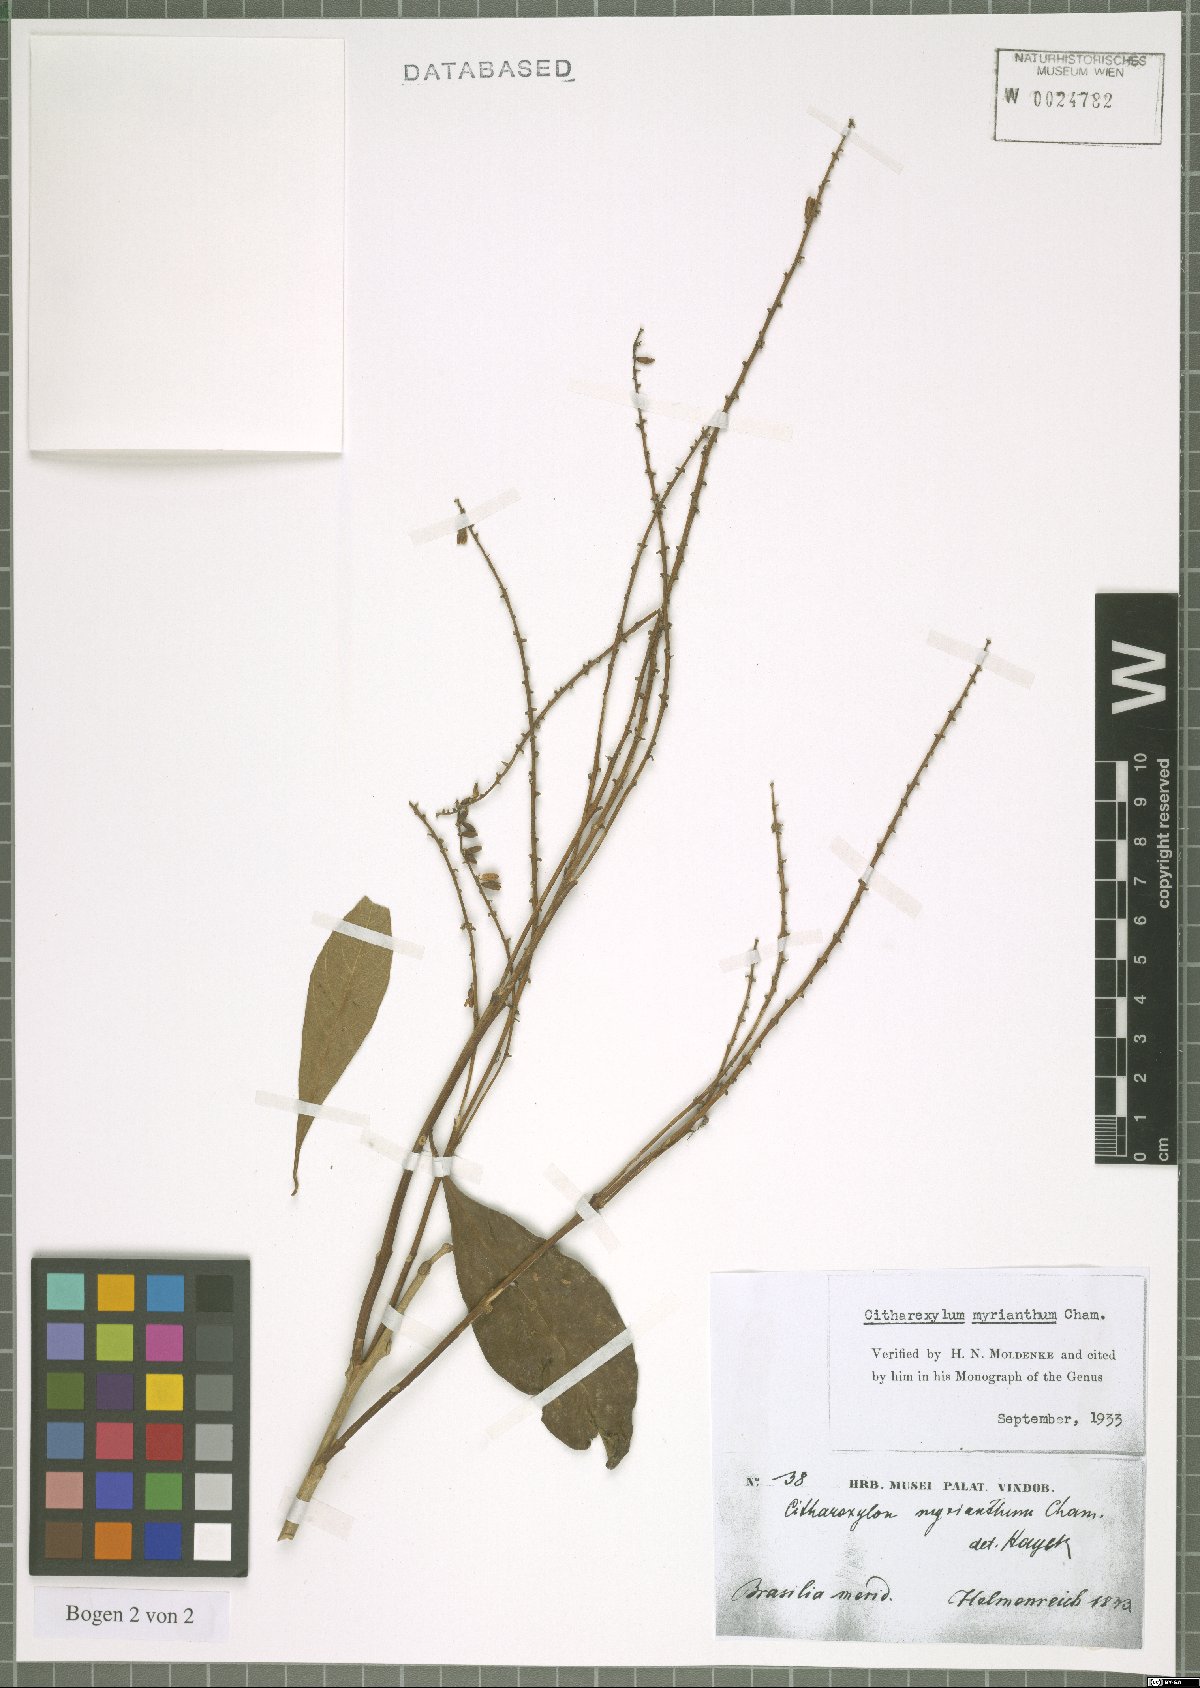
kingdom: Plantae
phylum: Tracheophyta
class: Magnoliopsida
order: Lamiales
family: Verbenaceae
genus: Citharexylum
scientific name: Citharexylum myrianthum
